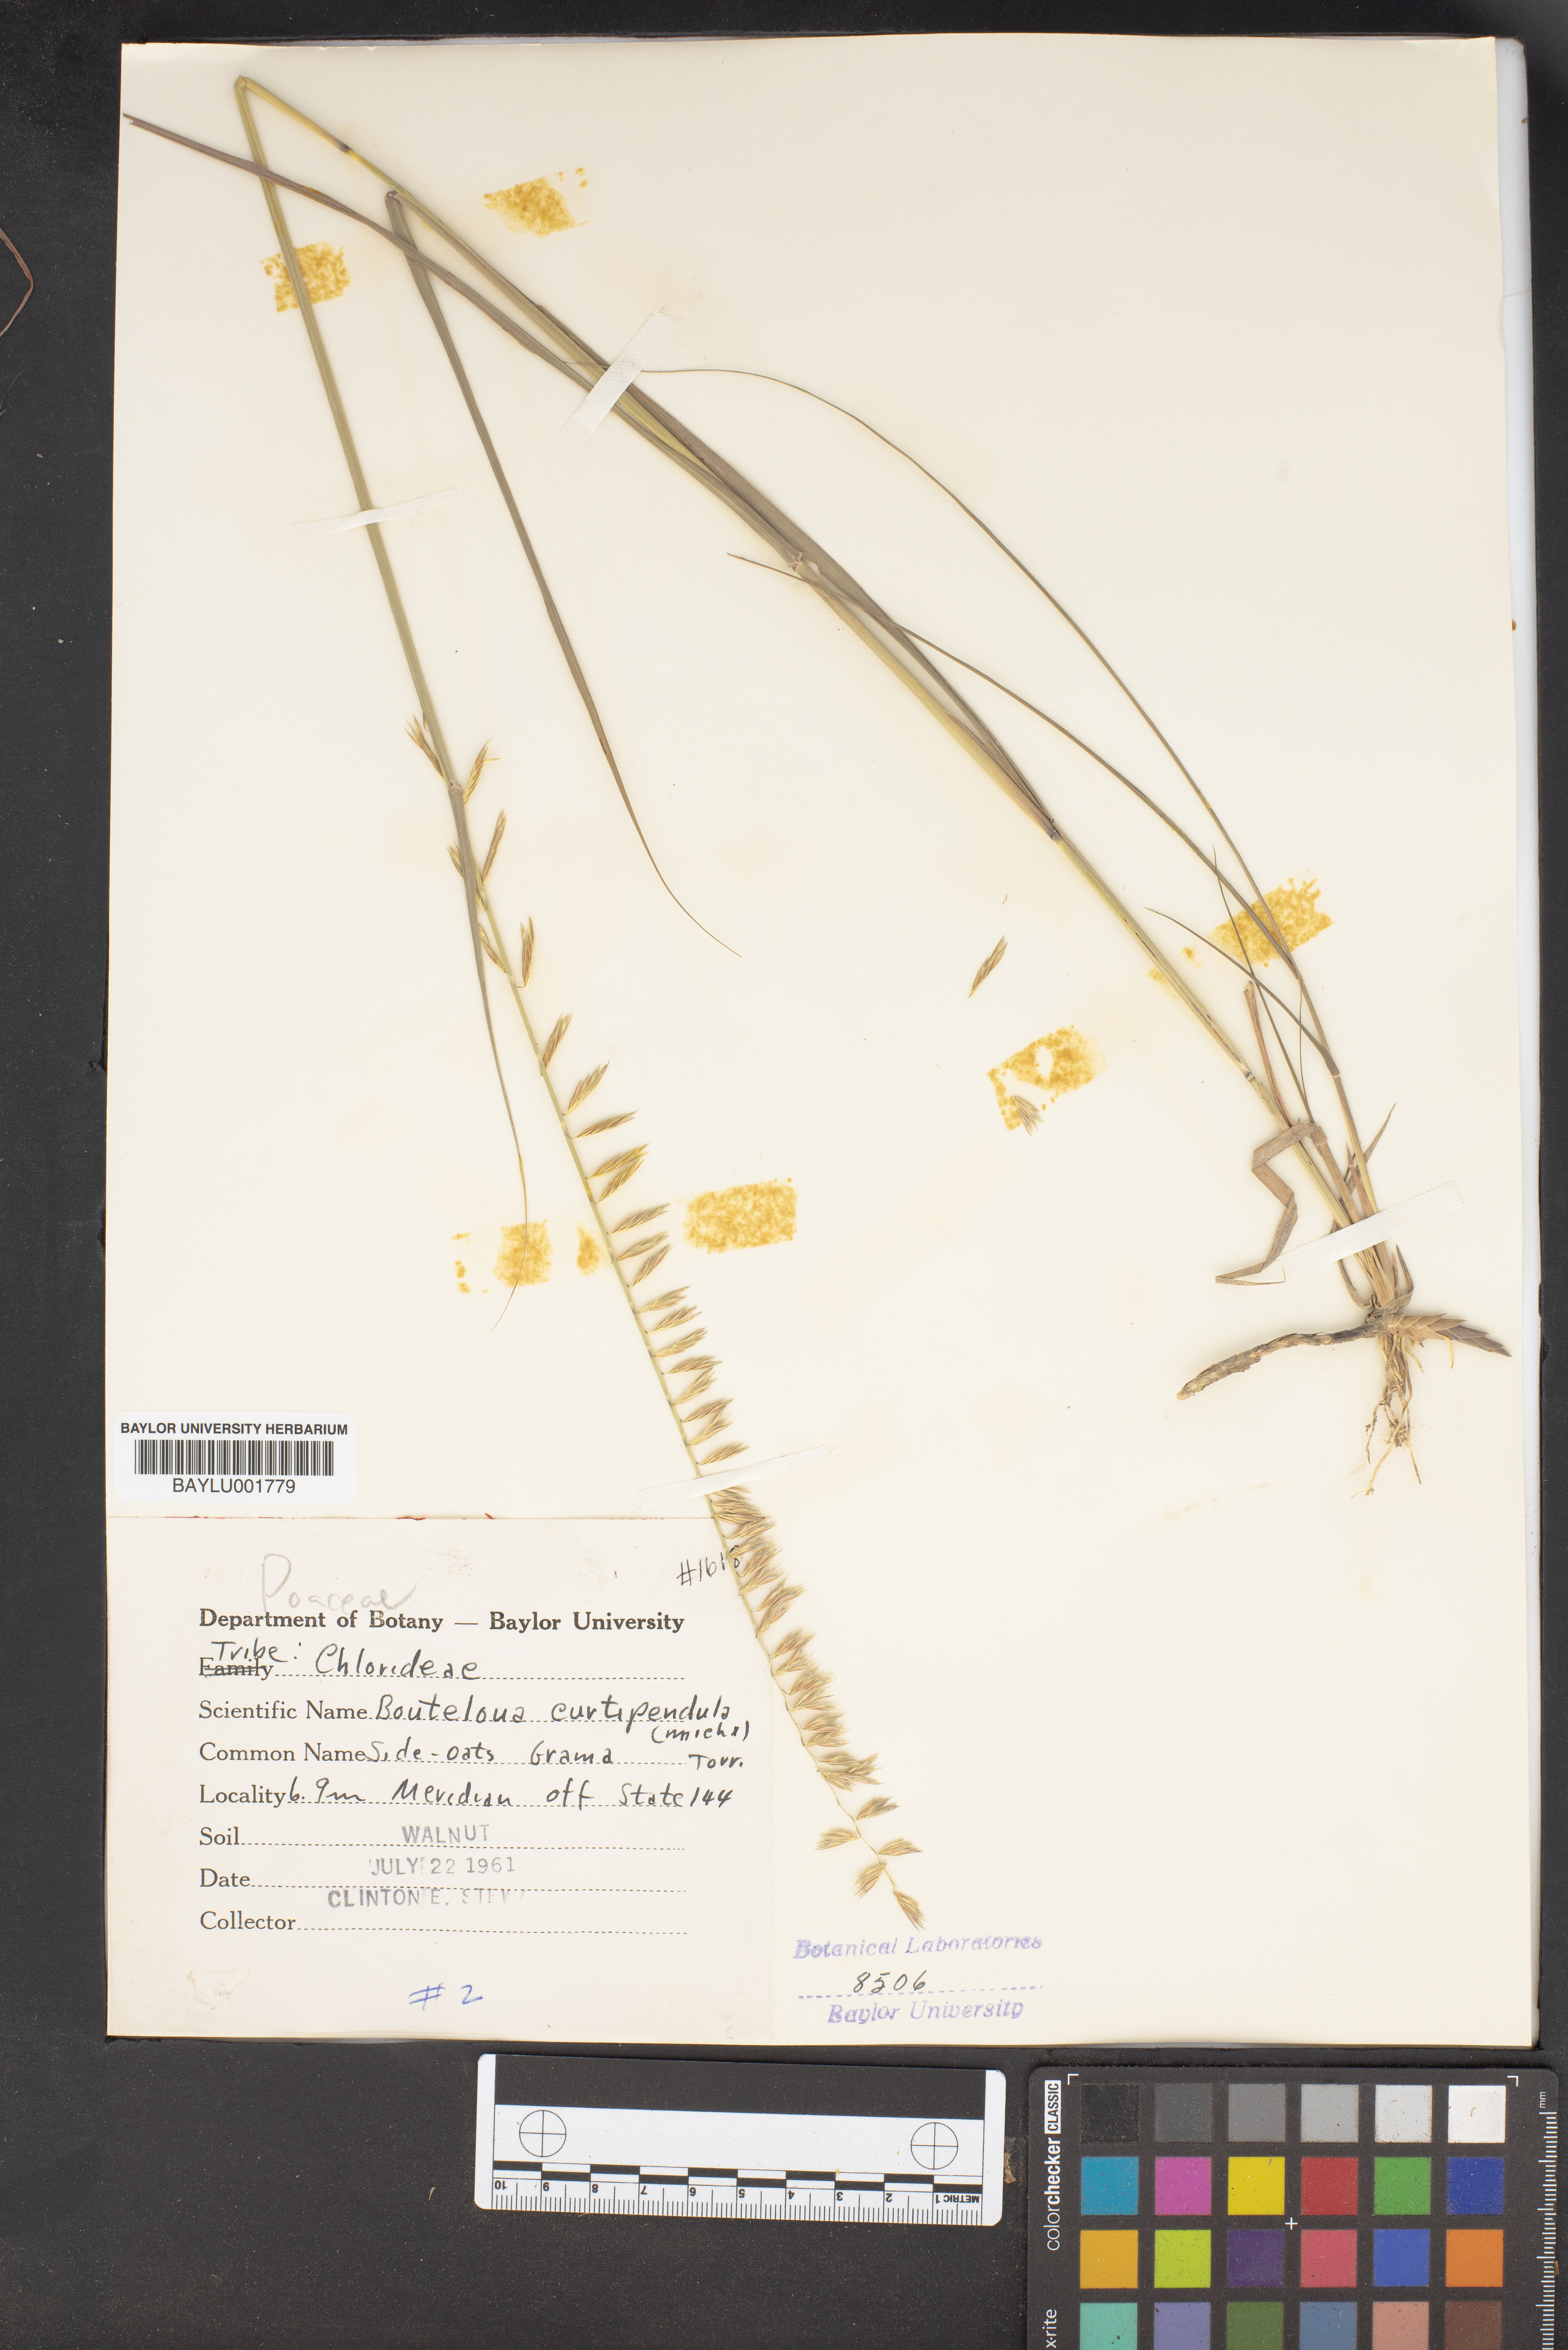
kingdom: Plantae
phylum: Tracheophyta
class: Liliopsida
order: Poales
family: Poaceae
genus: Bouteloua
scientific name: Bouteloua curtipendula
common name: Side-oats grama
